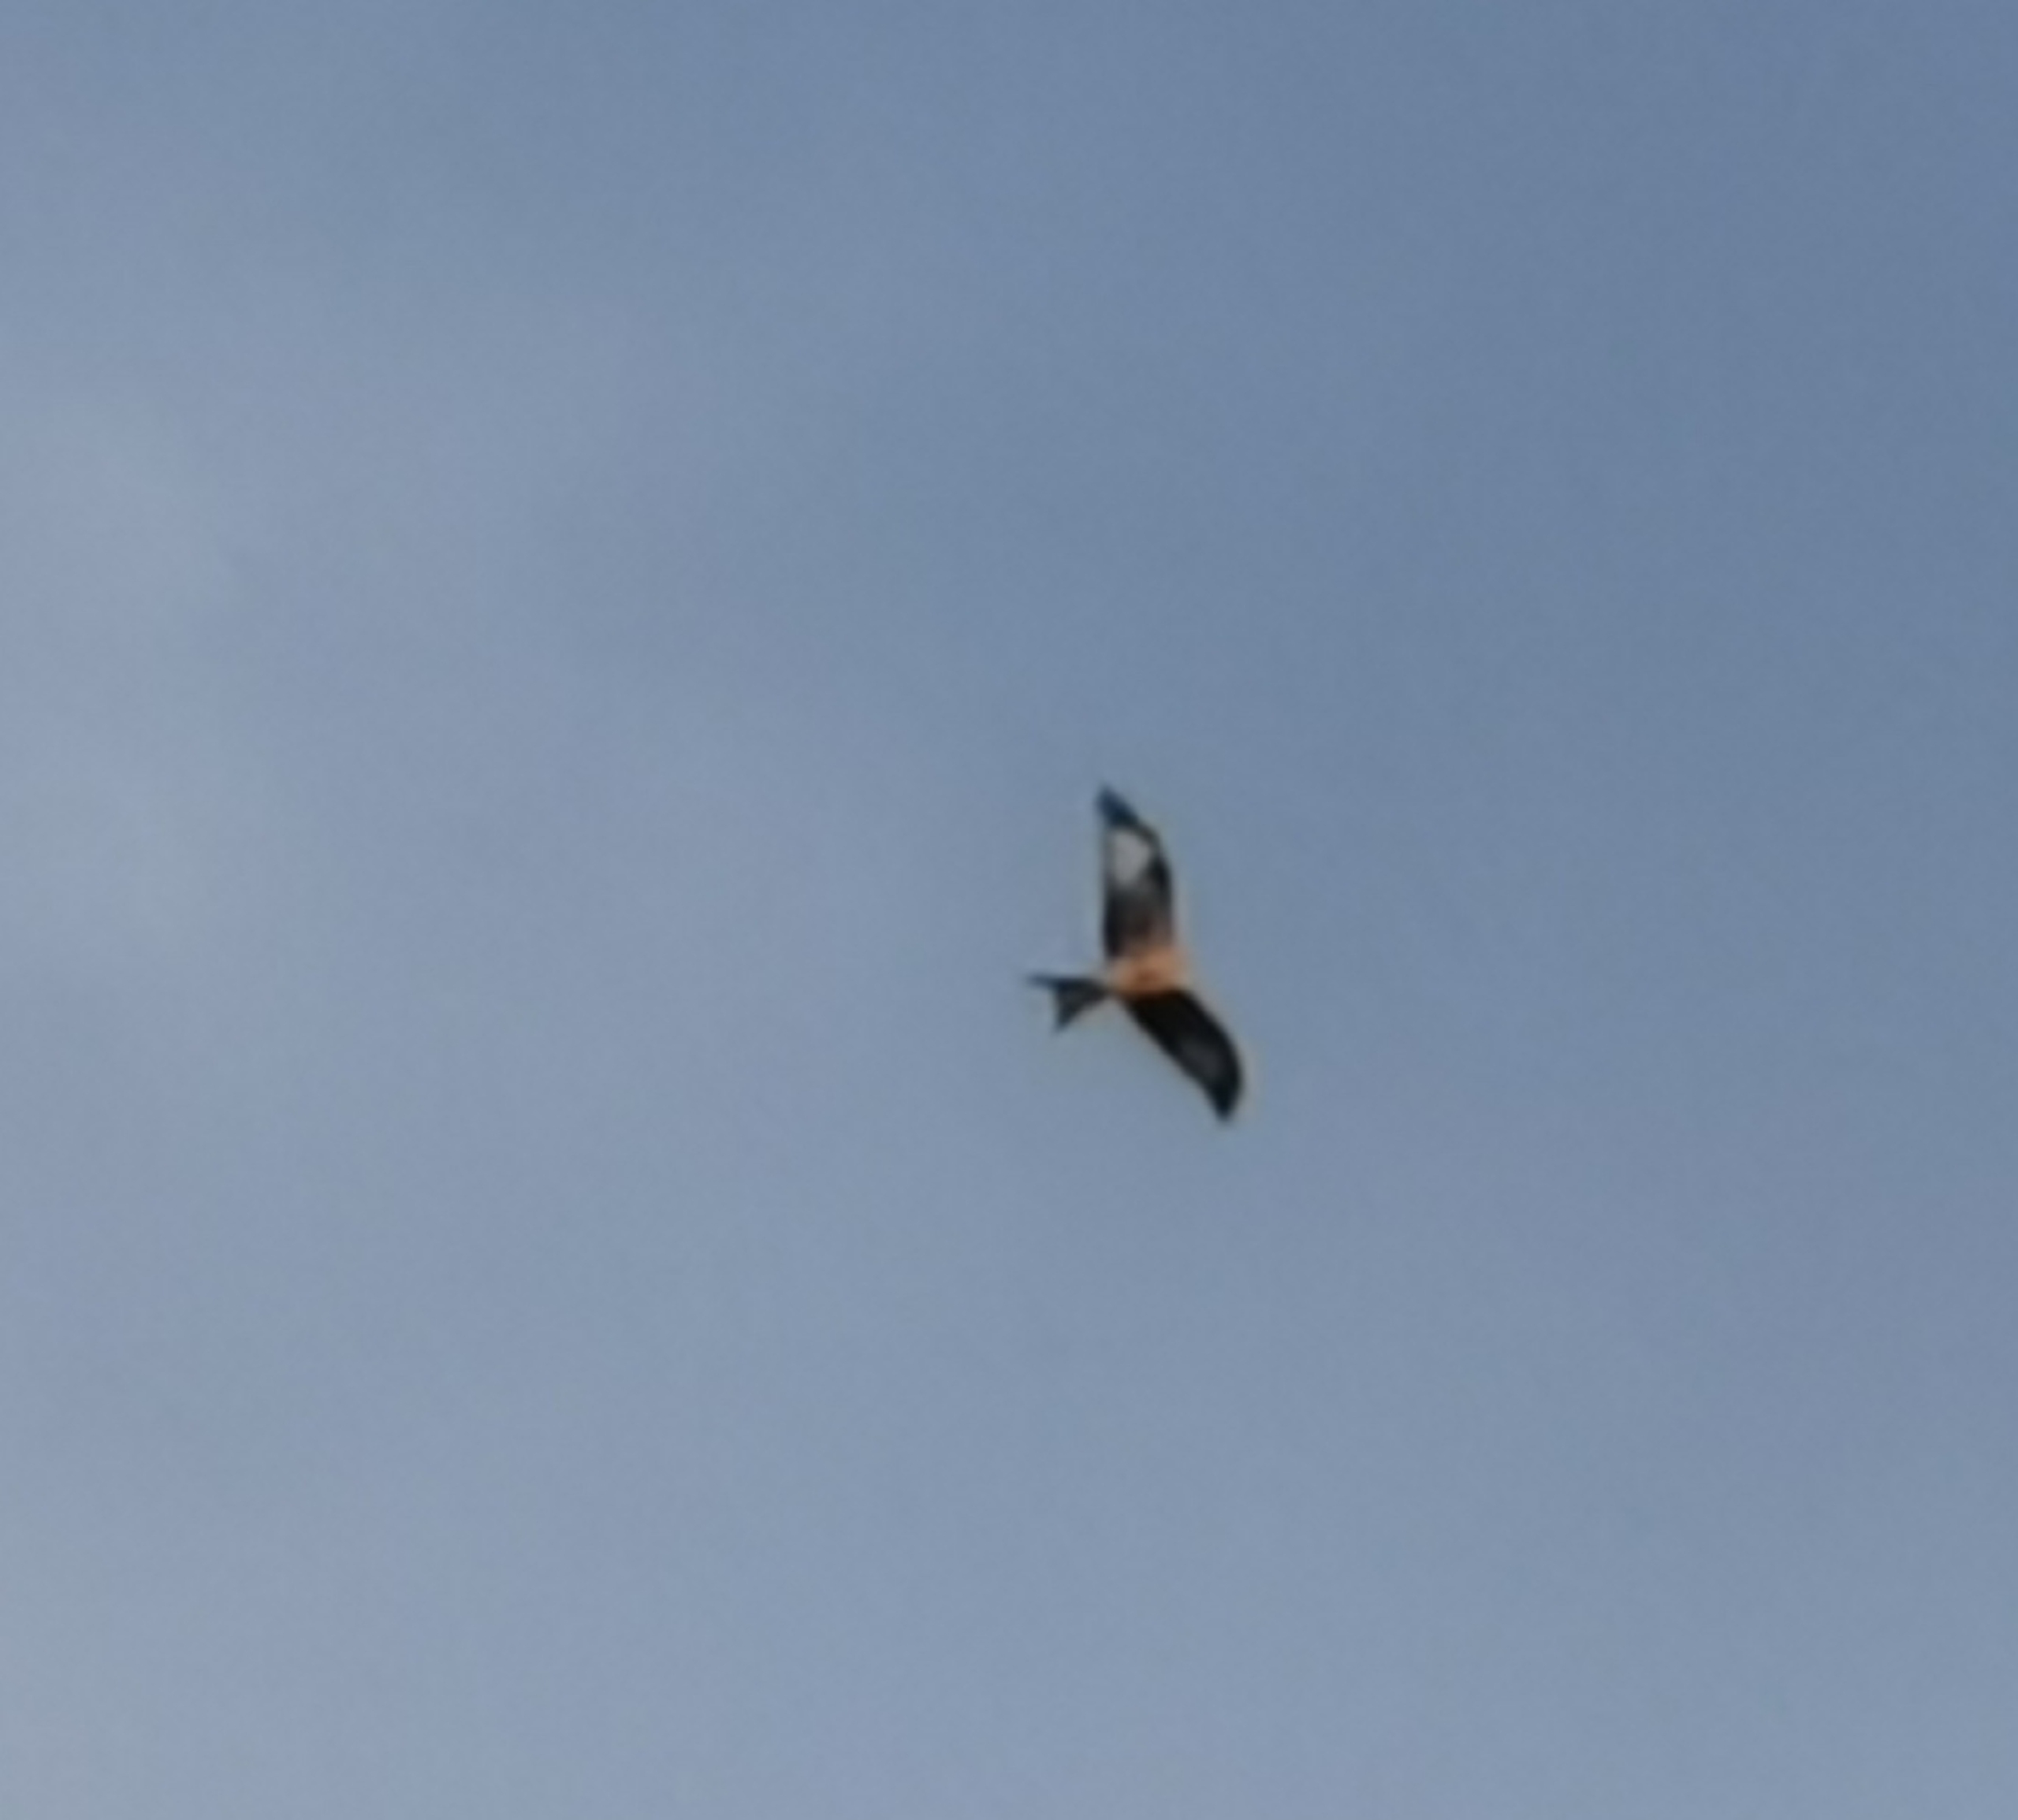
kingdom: Animalia
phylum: Chordata
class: Aves
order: Accipitriformes
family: Accipitridae
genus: Milvus
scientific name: Milvus milvus
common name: Rød glente
